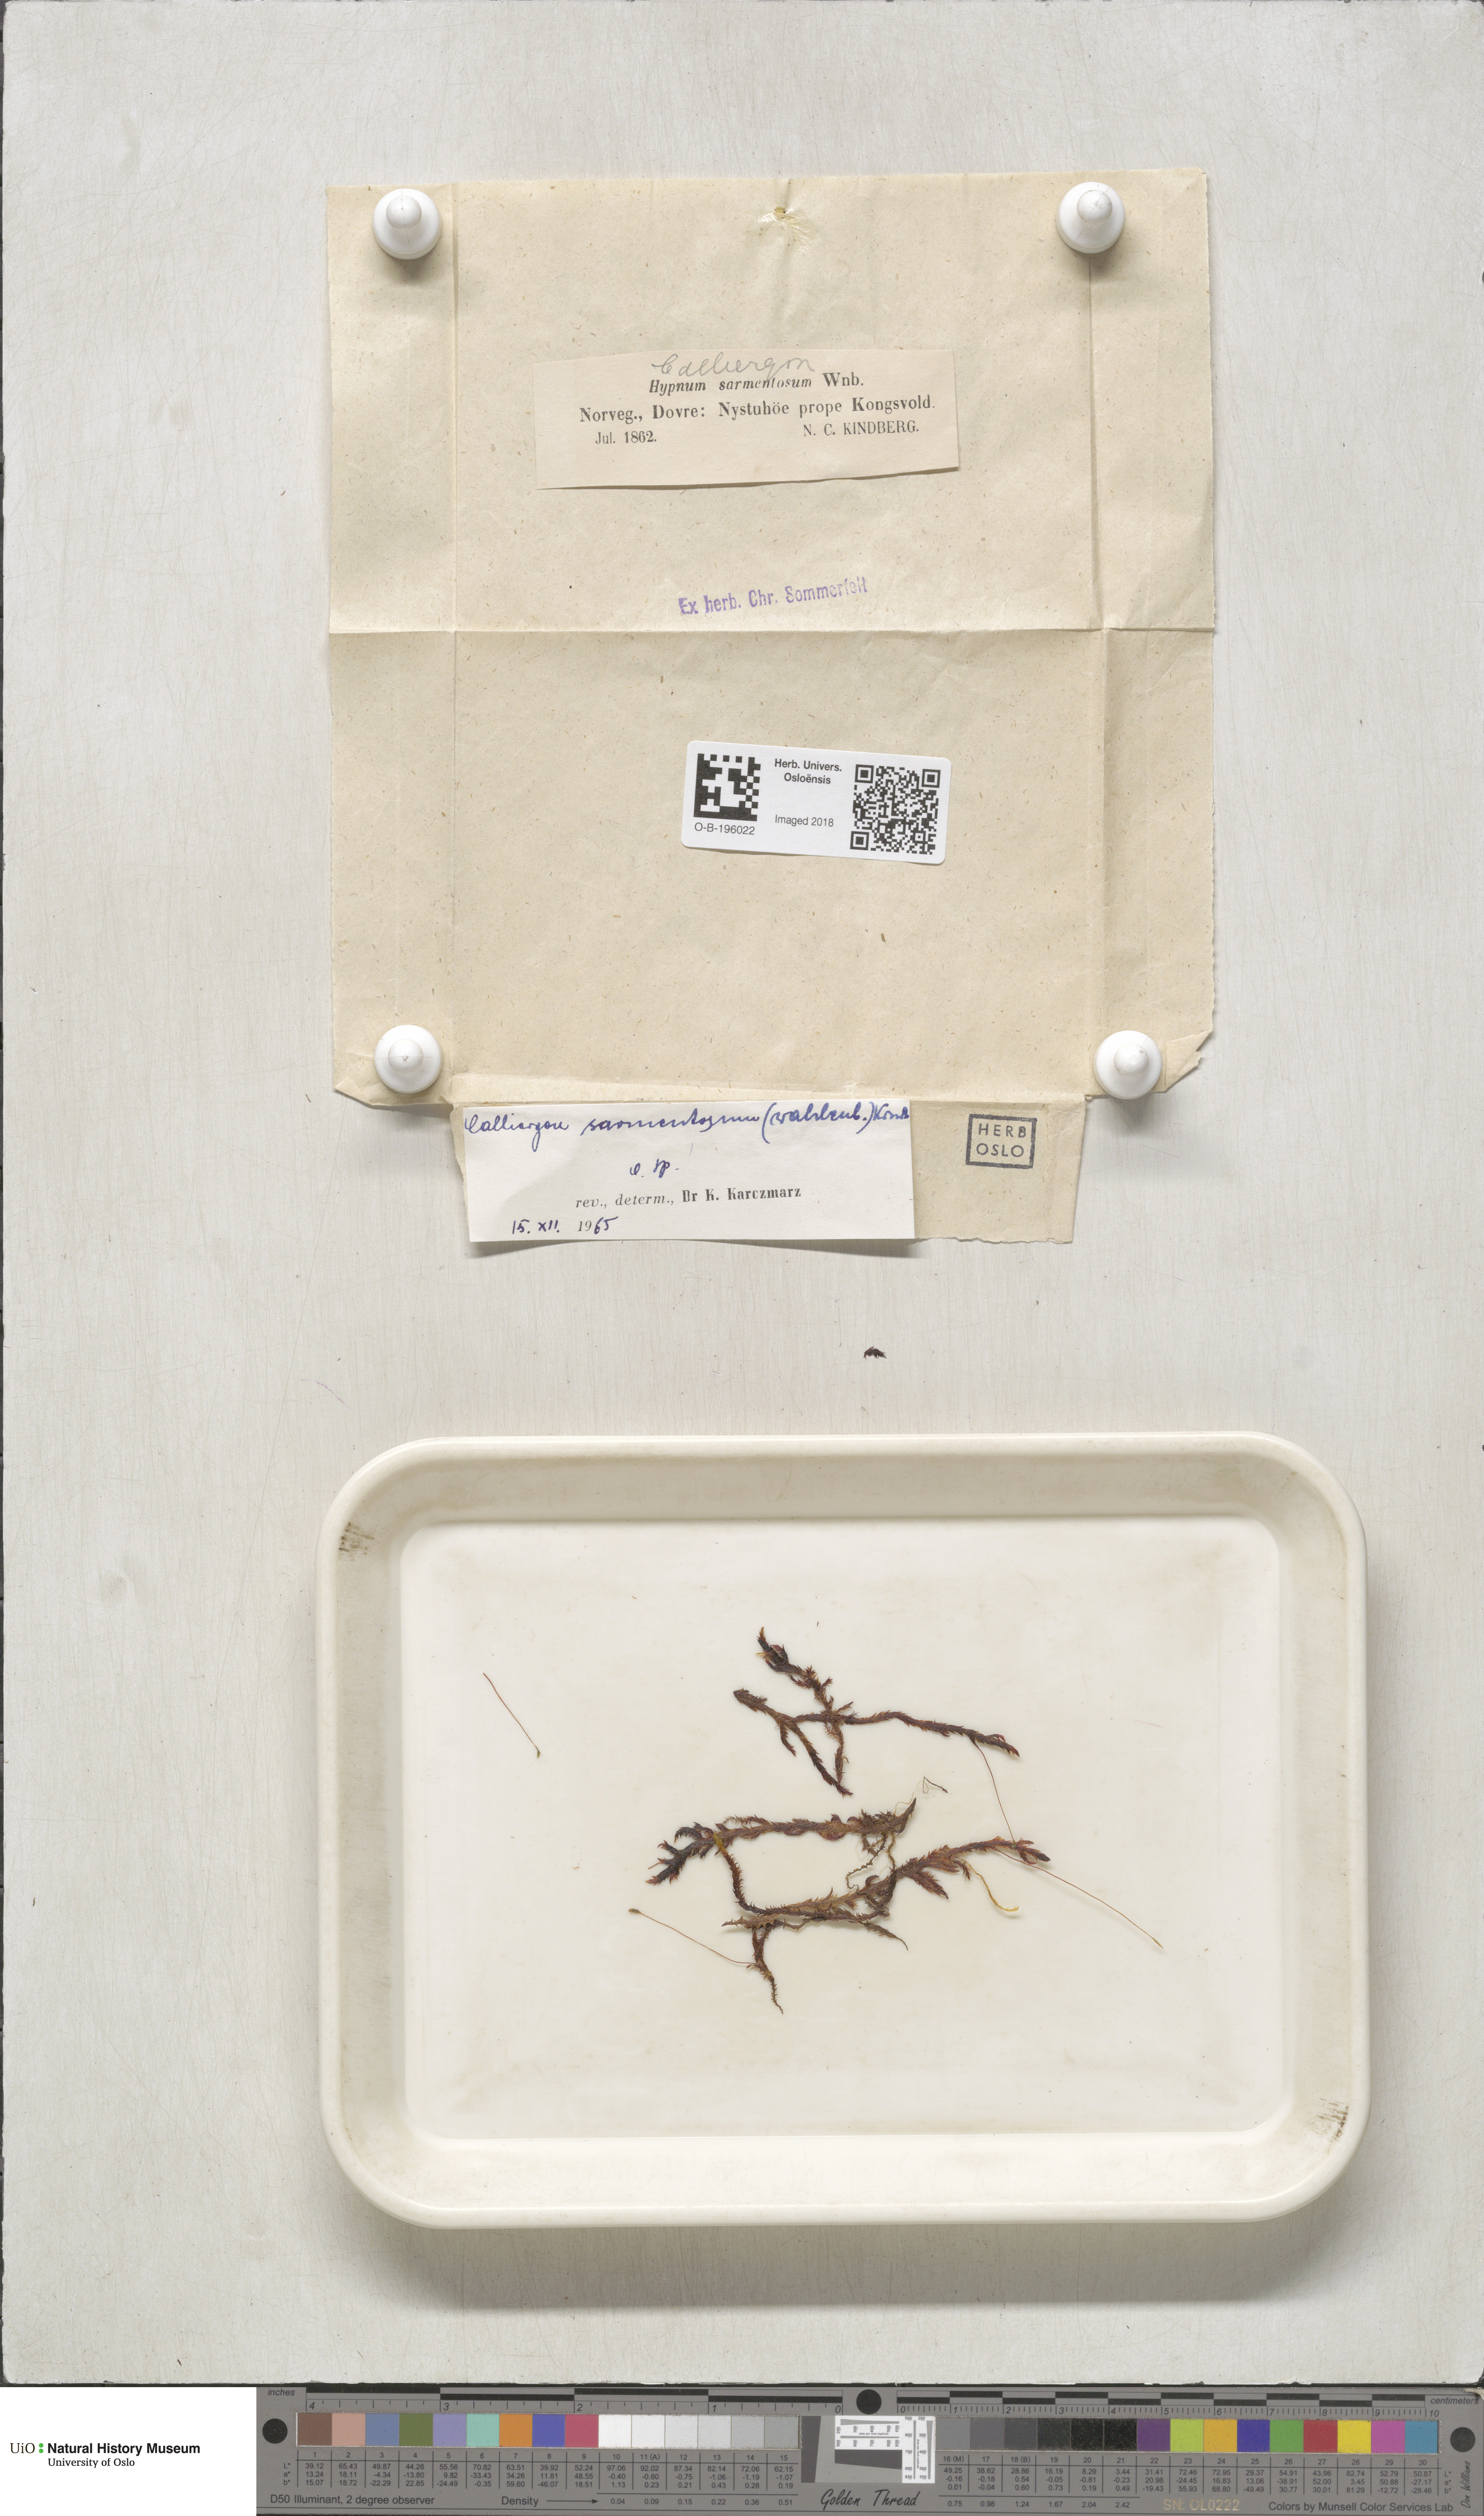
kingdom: Plantae
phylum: Bryophyta
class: Bryopsida
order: Hypnales
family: Calliergonaceae
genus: Sarmentypnum
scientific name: Sarmentypnum sarmentosum
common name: Twiggy spoon moss
